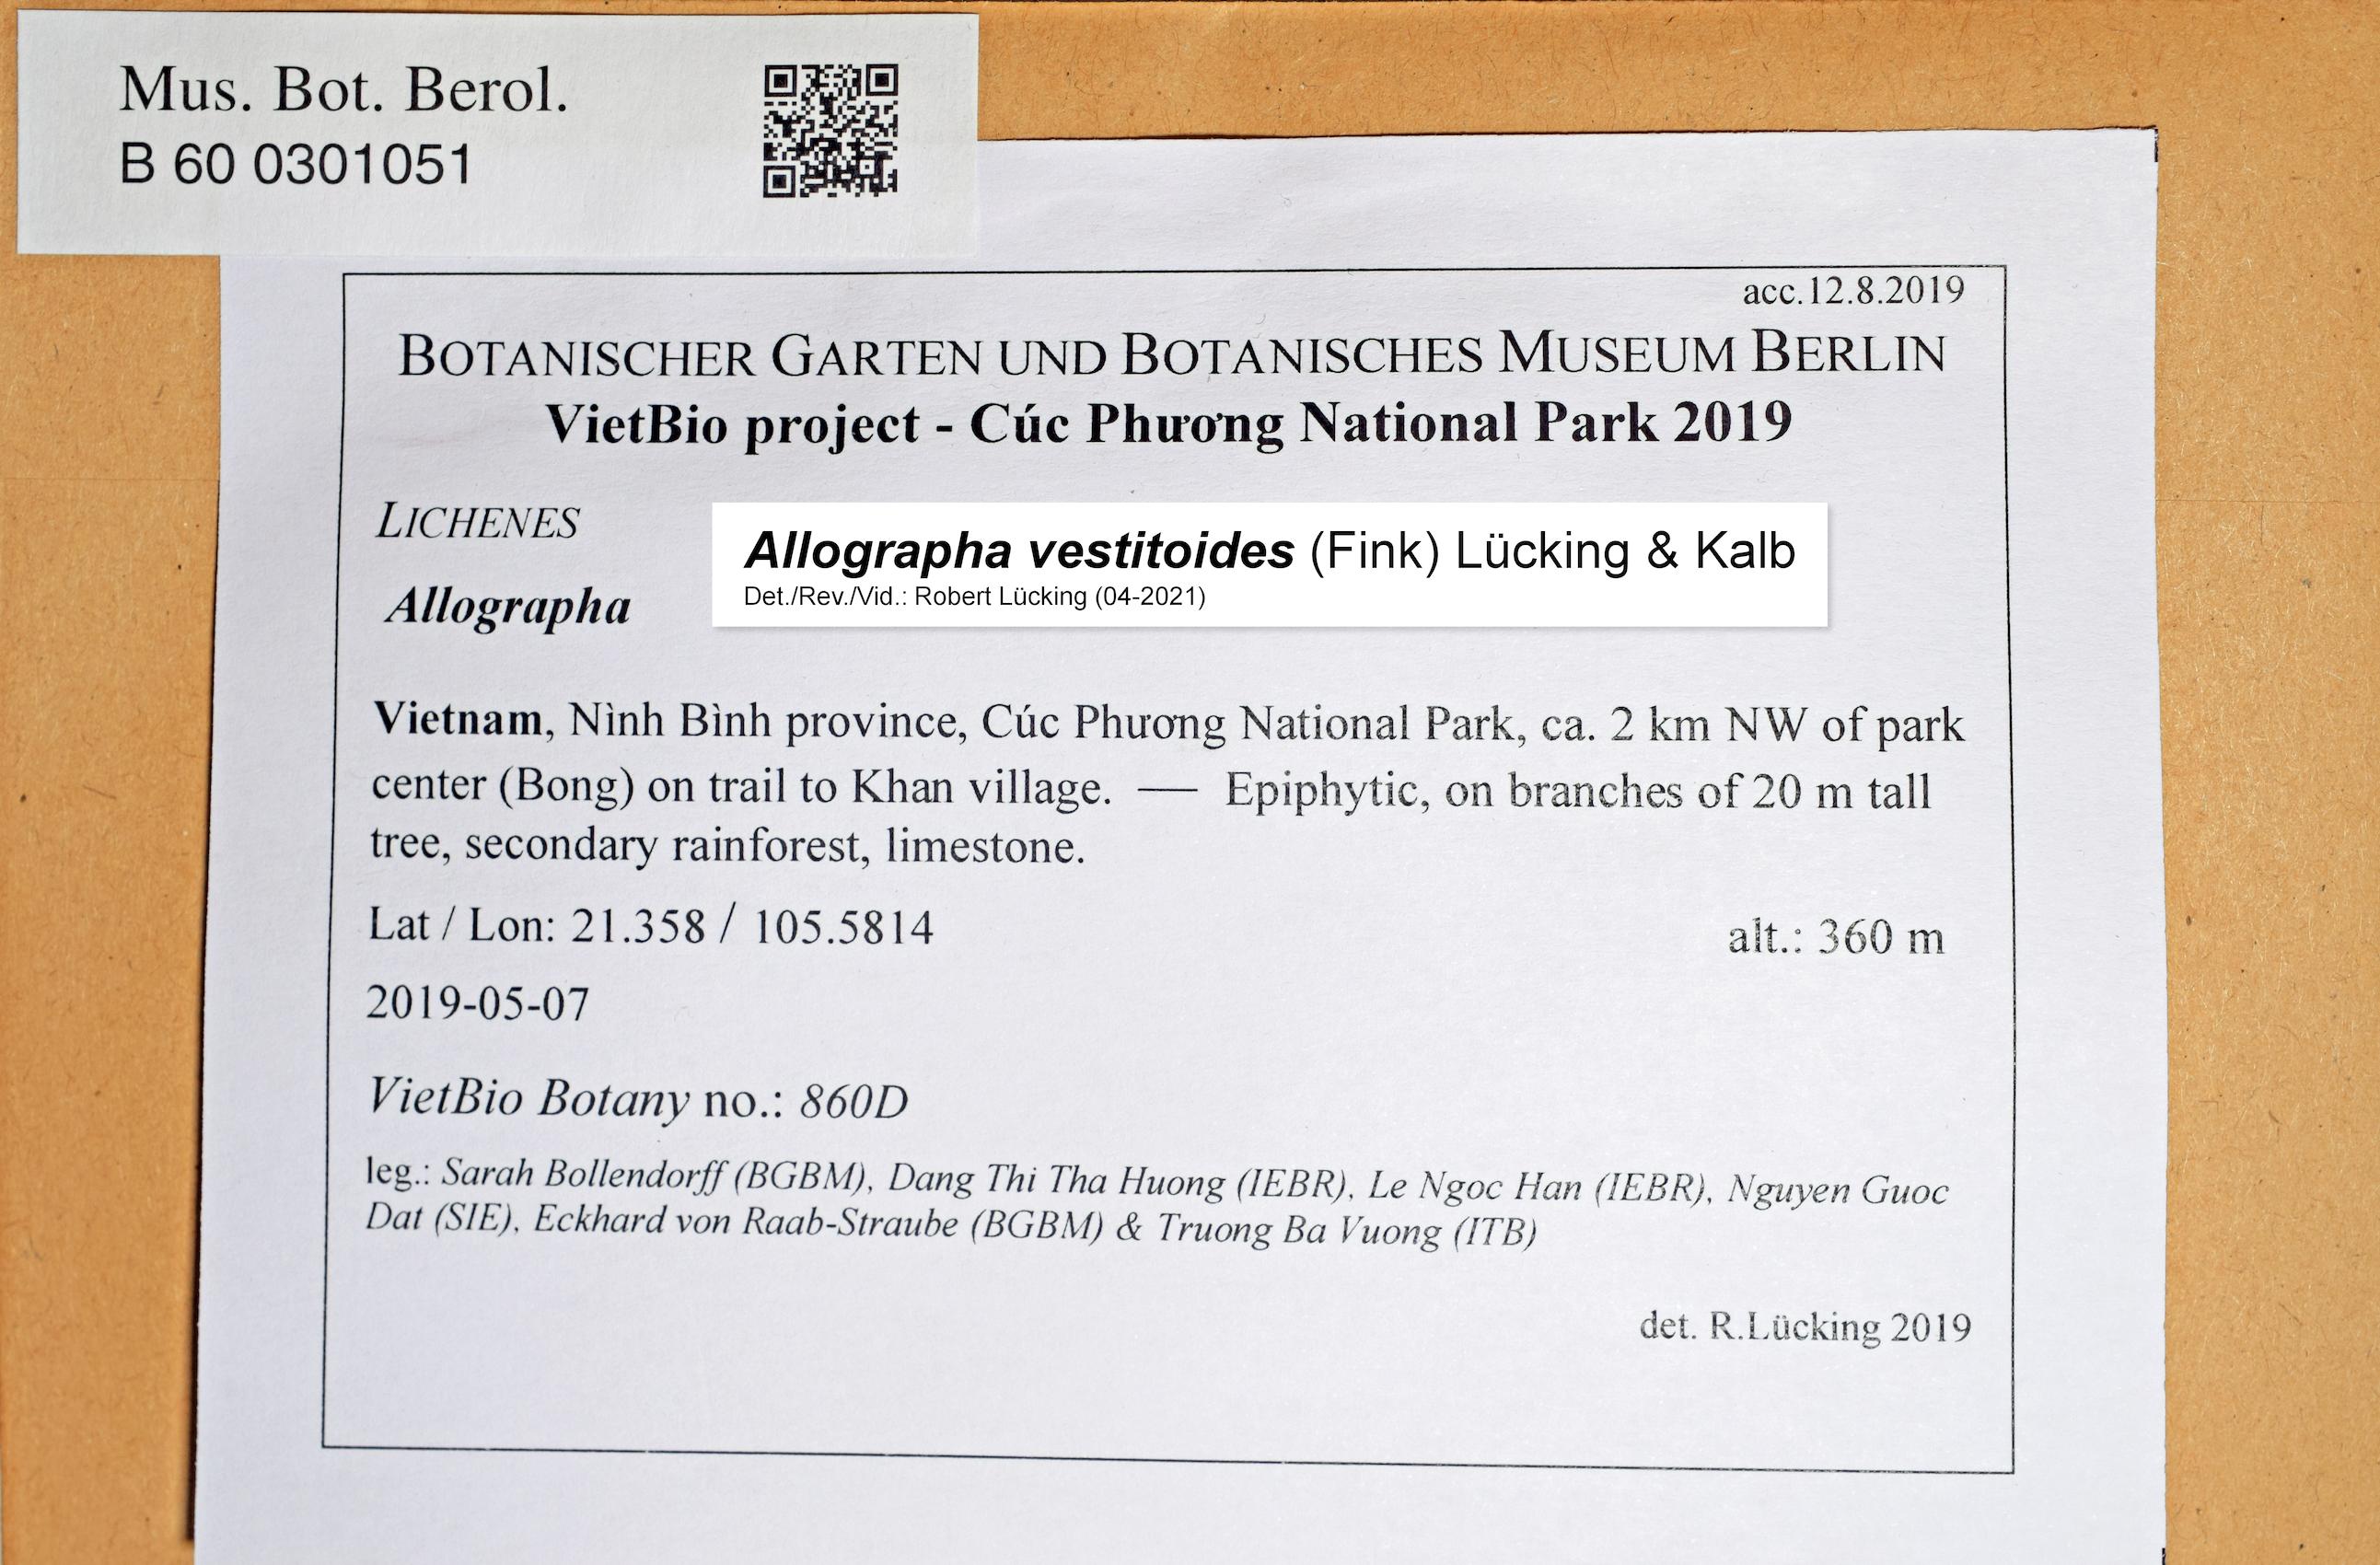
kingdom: Fungi
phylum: Ascomycota
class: Lecanoromycetes
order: Ostropales
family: Graphidaceae
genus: Allographa
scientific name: Allographa
